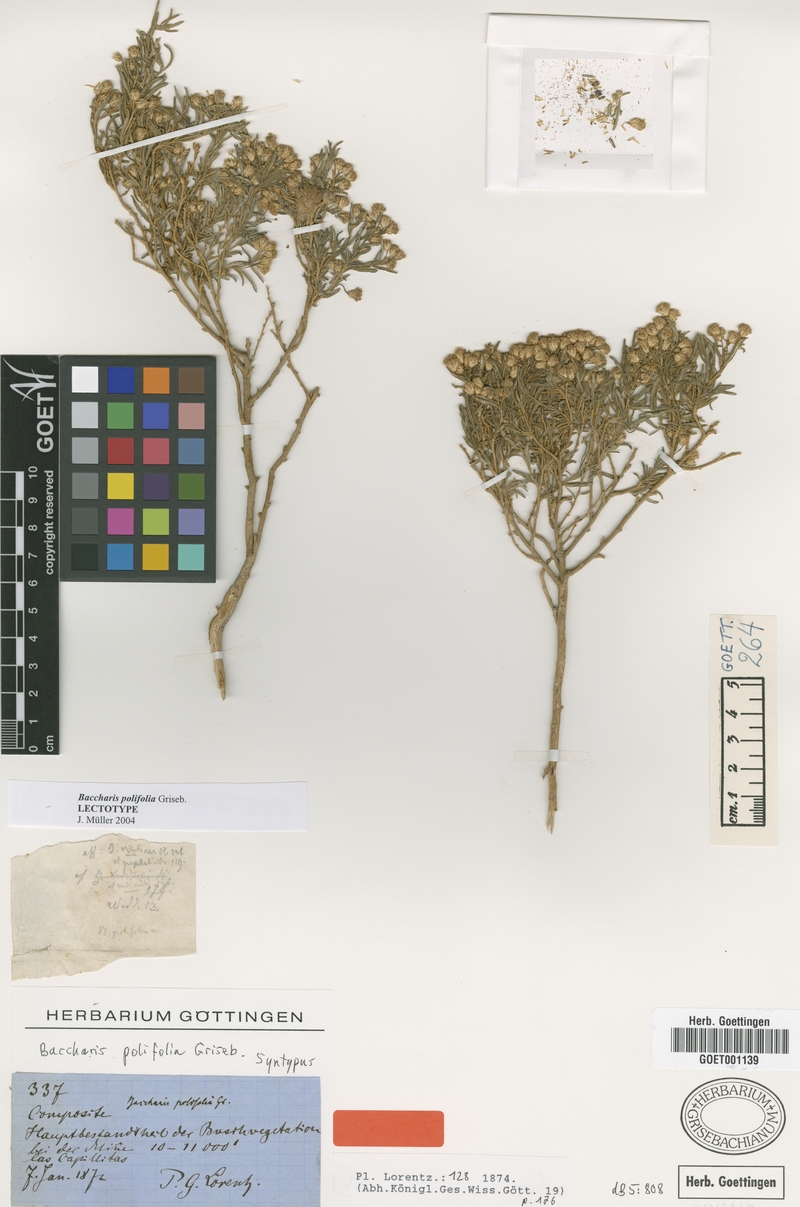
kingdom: Plantae
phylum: Tracheophyta
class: Magnoliopsida
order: Asterales
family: Asteraceae
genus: Baccharis
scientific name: Baccharis polifolia
